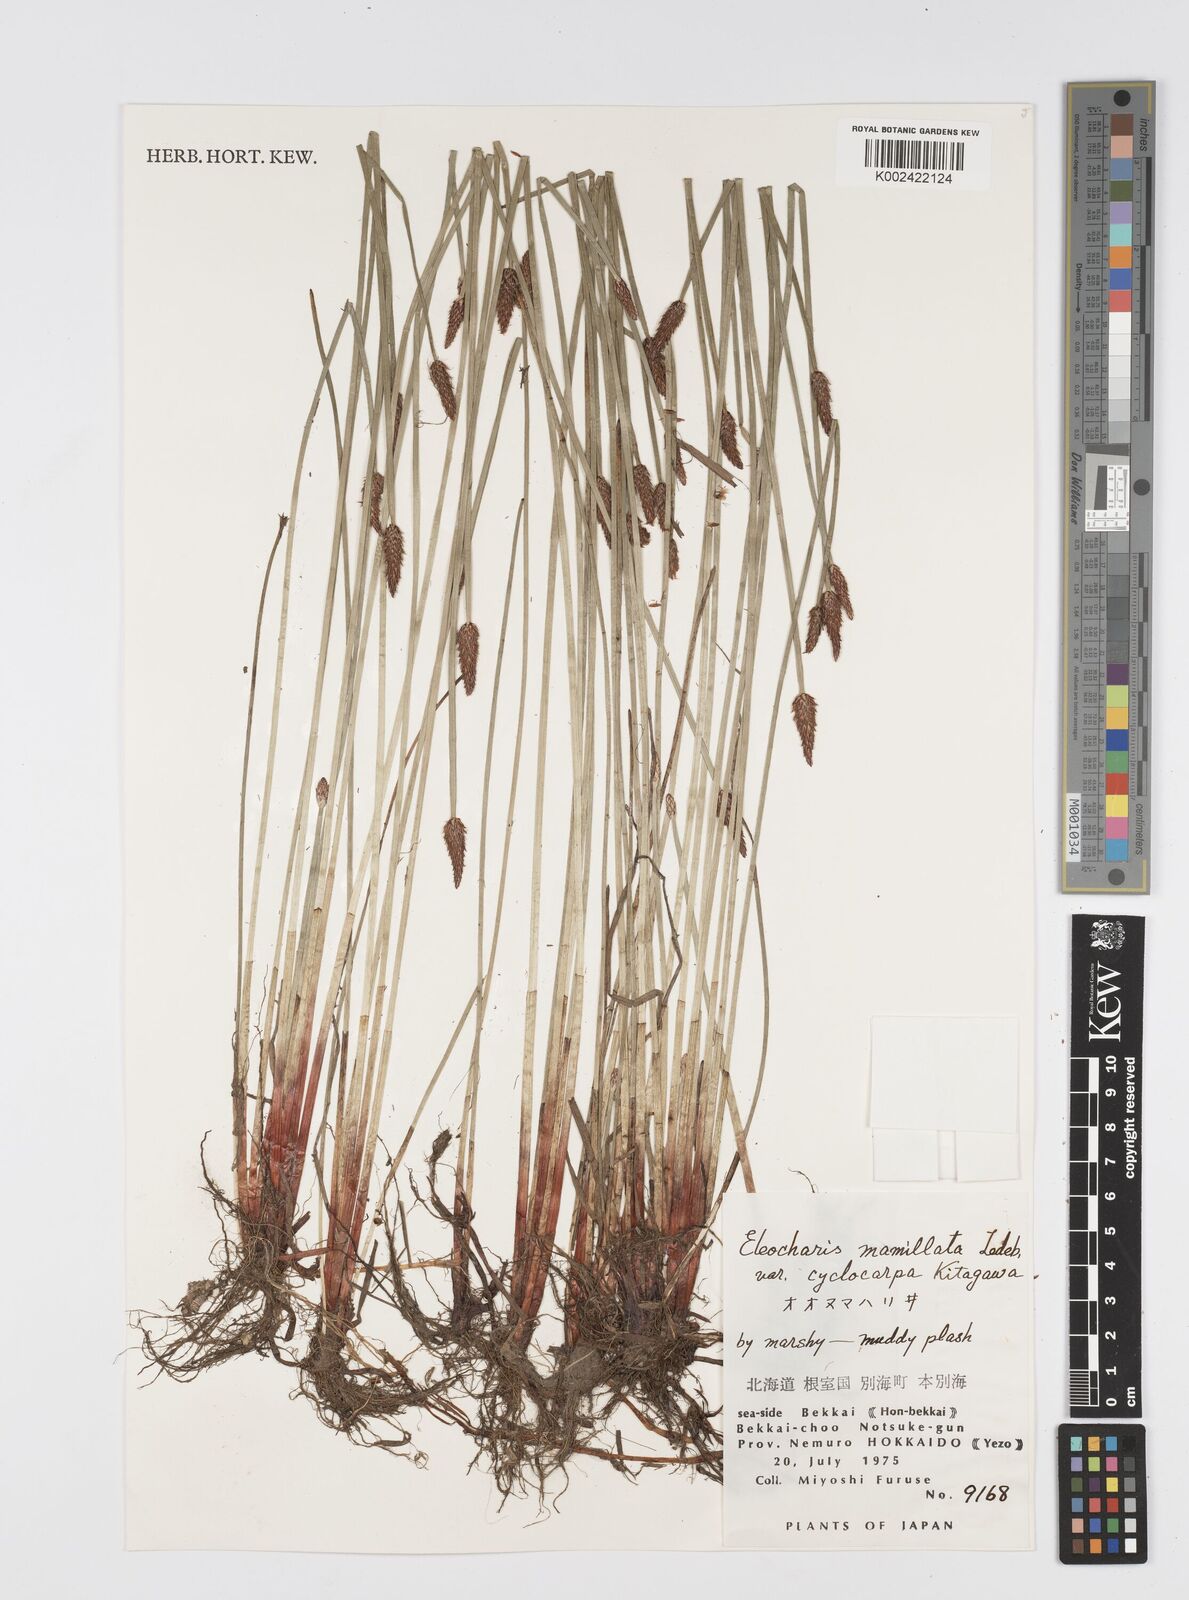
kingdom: Plantae
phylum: Tracheophyta
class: Liliopsida
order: Poales
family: Cyperaceae
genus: Eleocharis
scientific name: Eleocharis mamillata
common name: Northern spike-rush
